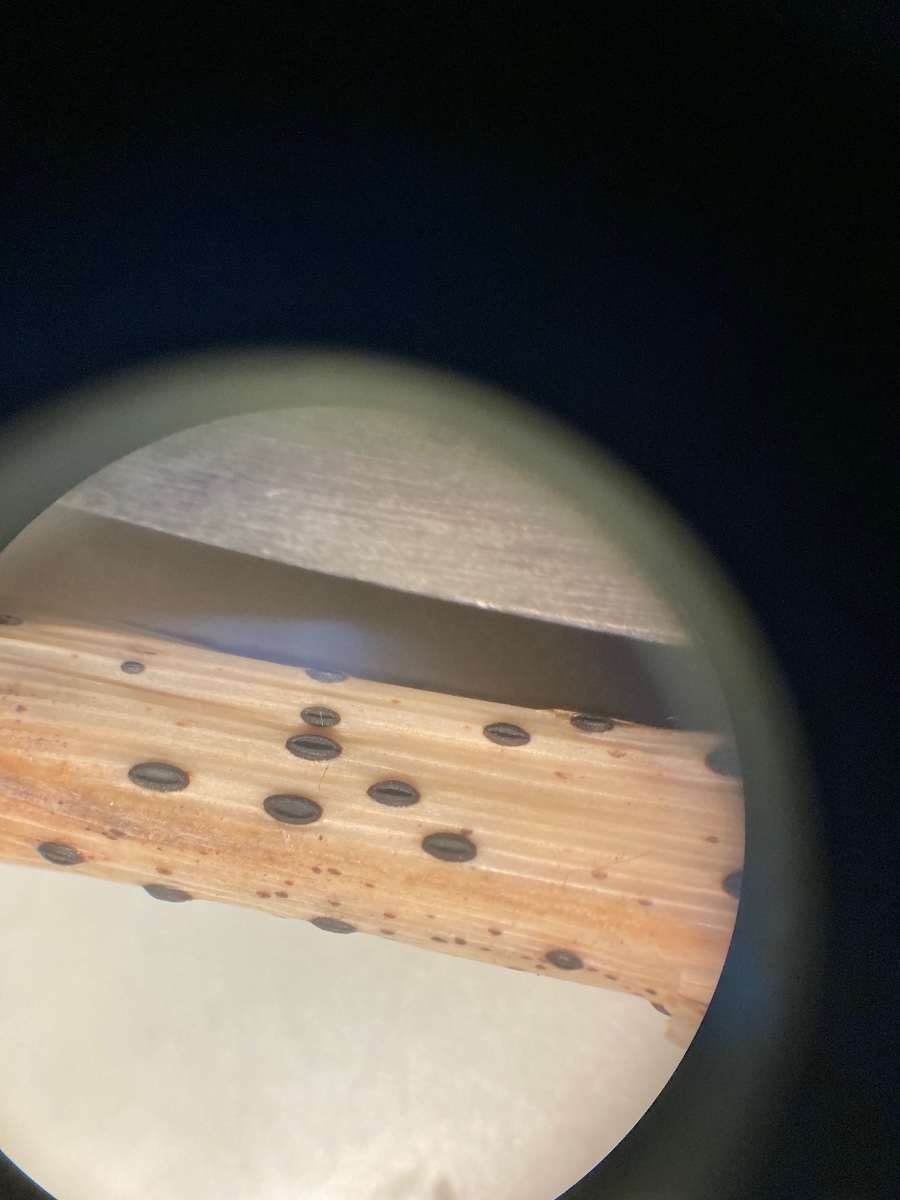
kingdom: Fungi
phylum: Ascomycota
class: Leotiomycetes
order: Rhytismatales
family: Rhytismataceae
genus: Lophodermium
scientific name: Lophodermium arundinaceum
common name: almindelig fureplet
